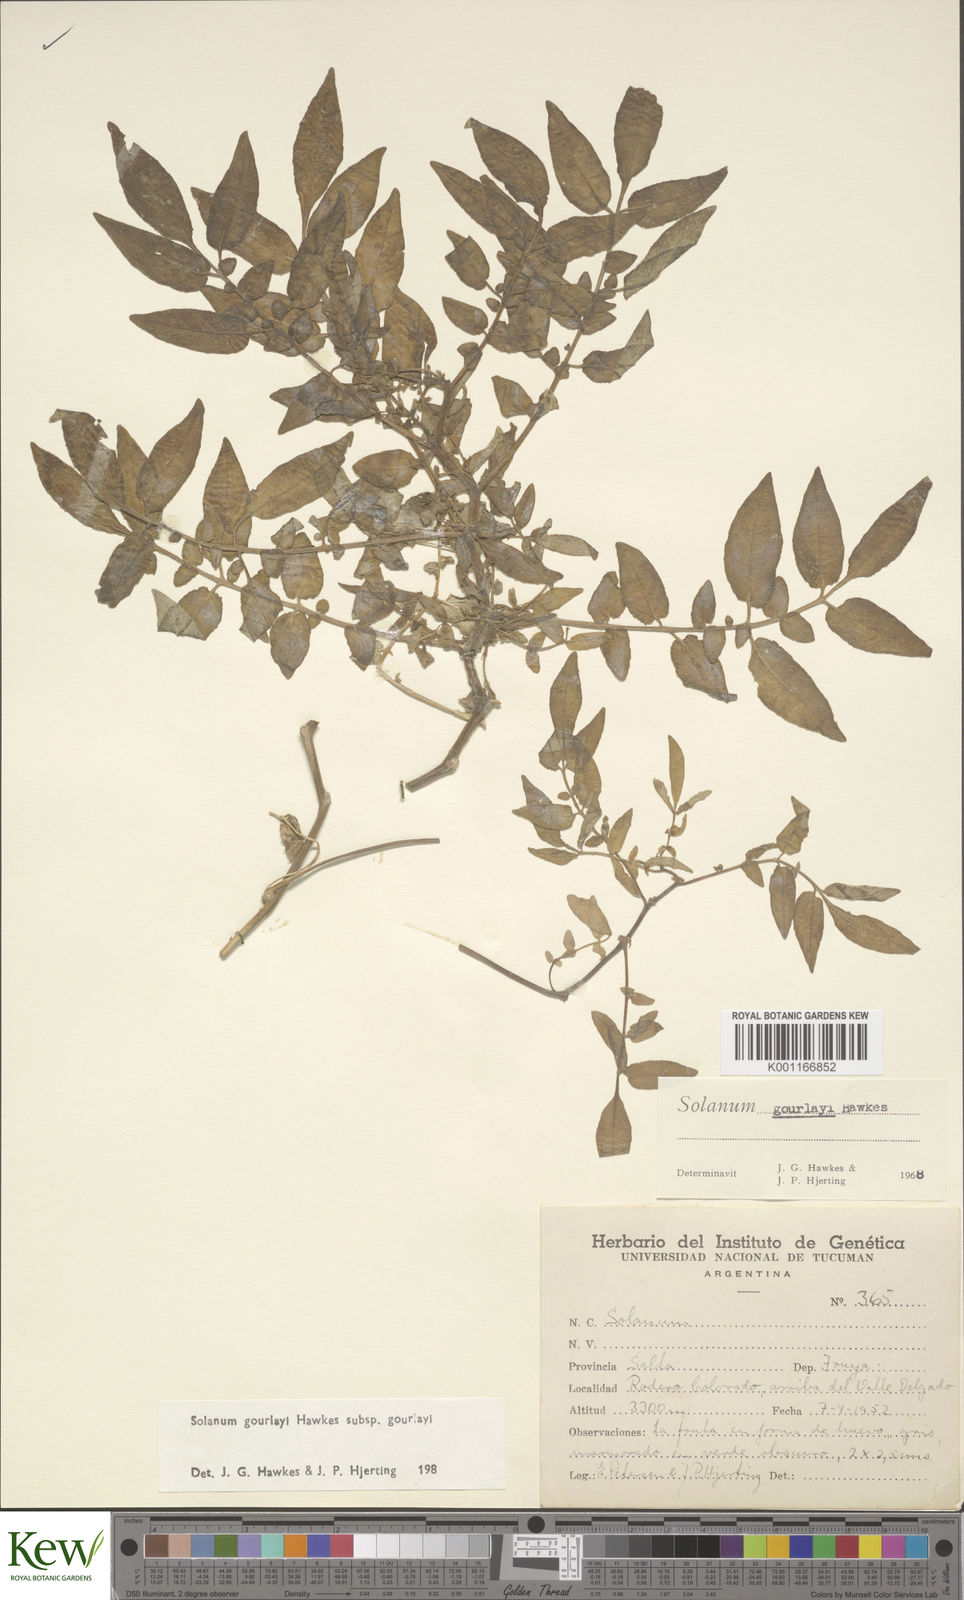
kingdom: Plantae
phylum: Tracheophyta
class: Magnoliopsida
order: Solanales
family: Solanaceae
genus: Solanum
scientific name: Solanum brevicaule
